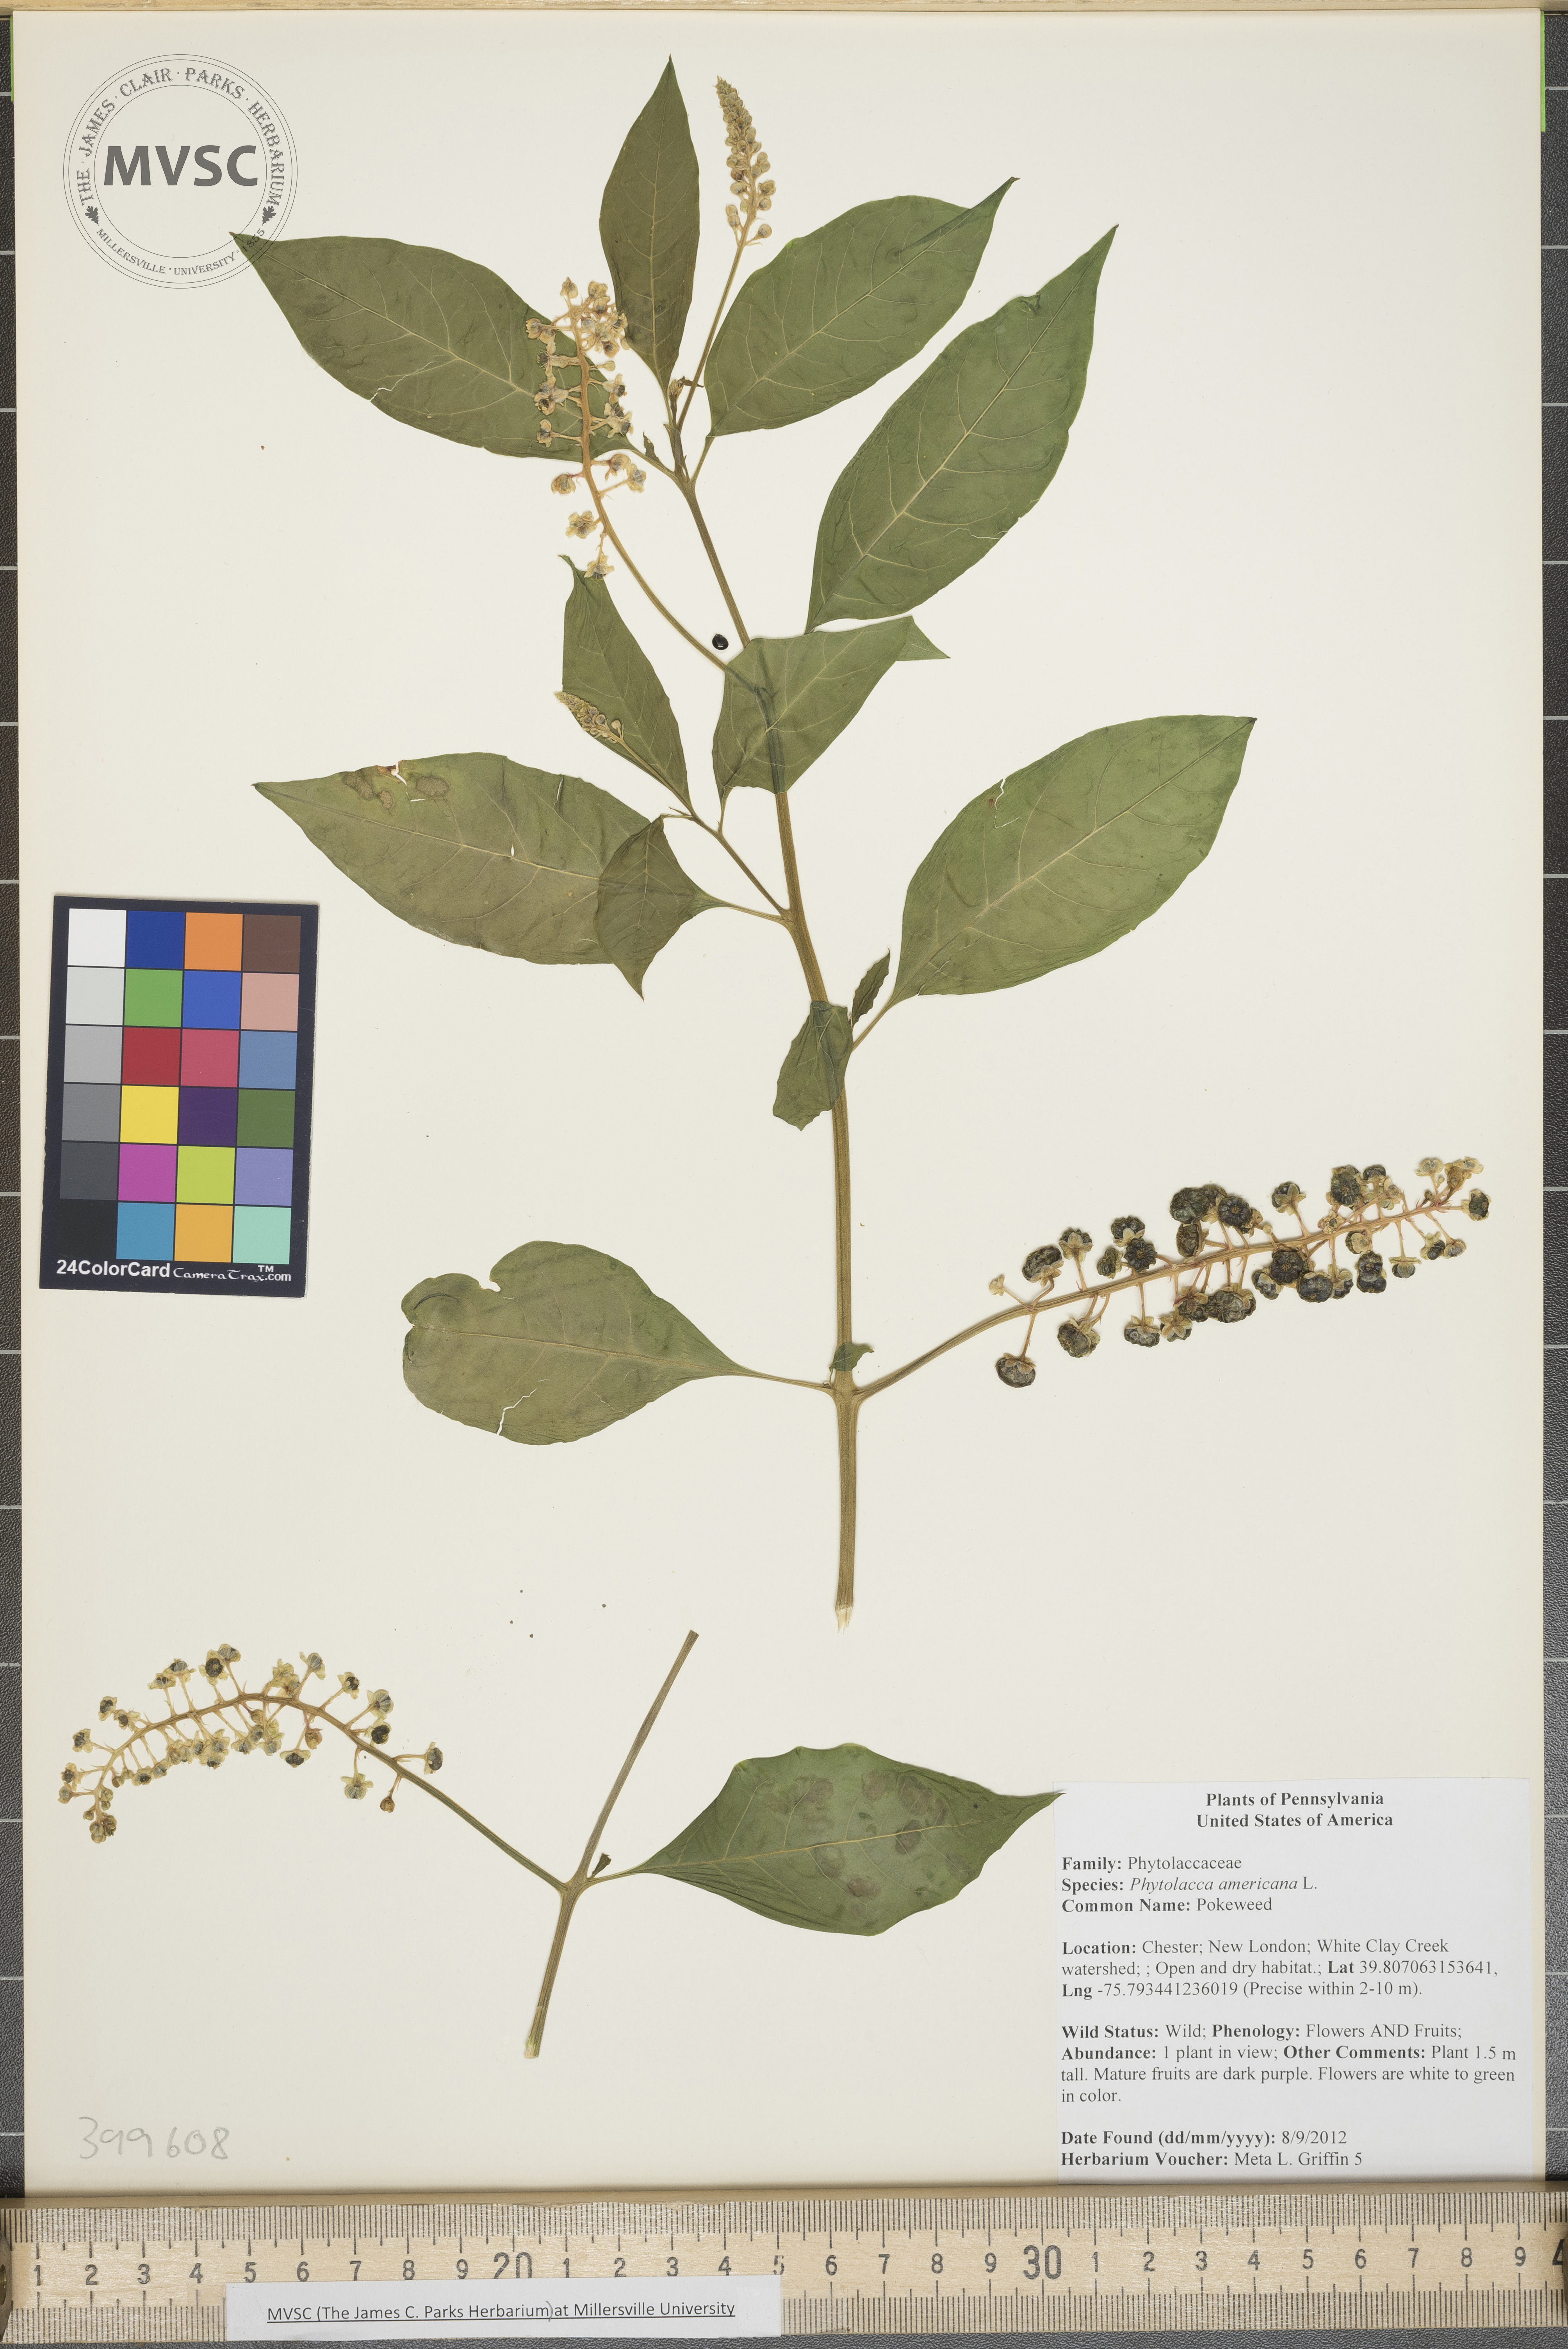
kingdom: Plantae
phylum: Tracheophyta
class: Magnoliopsida
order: Caryophyllales
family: Phytolaccaceae
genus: Phytolacca
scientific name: Phytolacca americana
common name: Pokeweed
